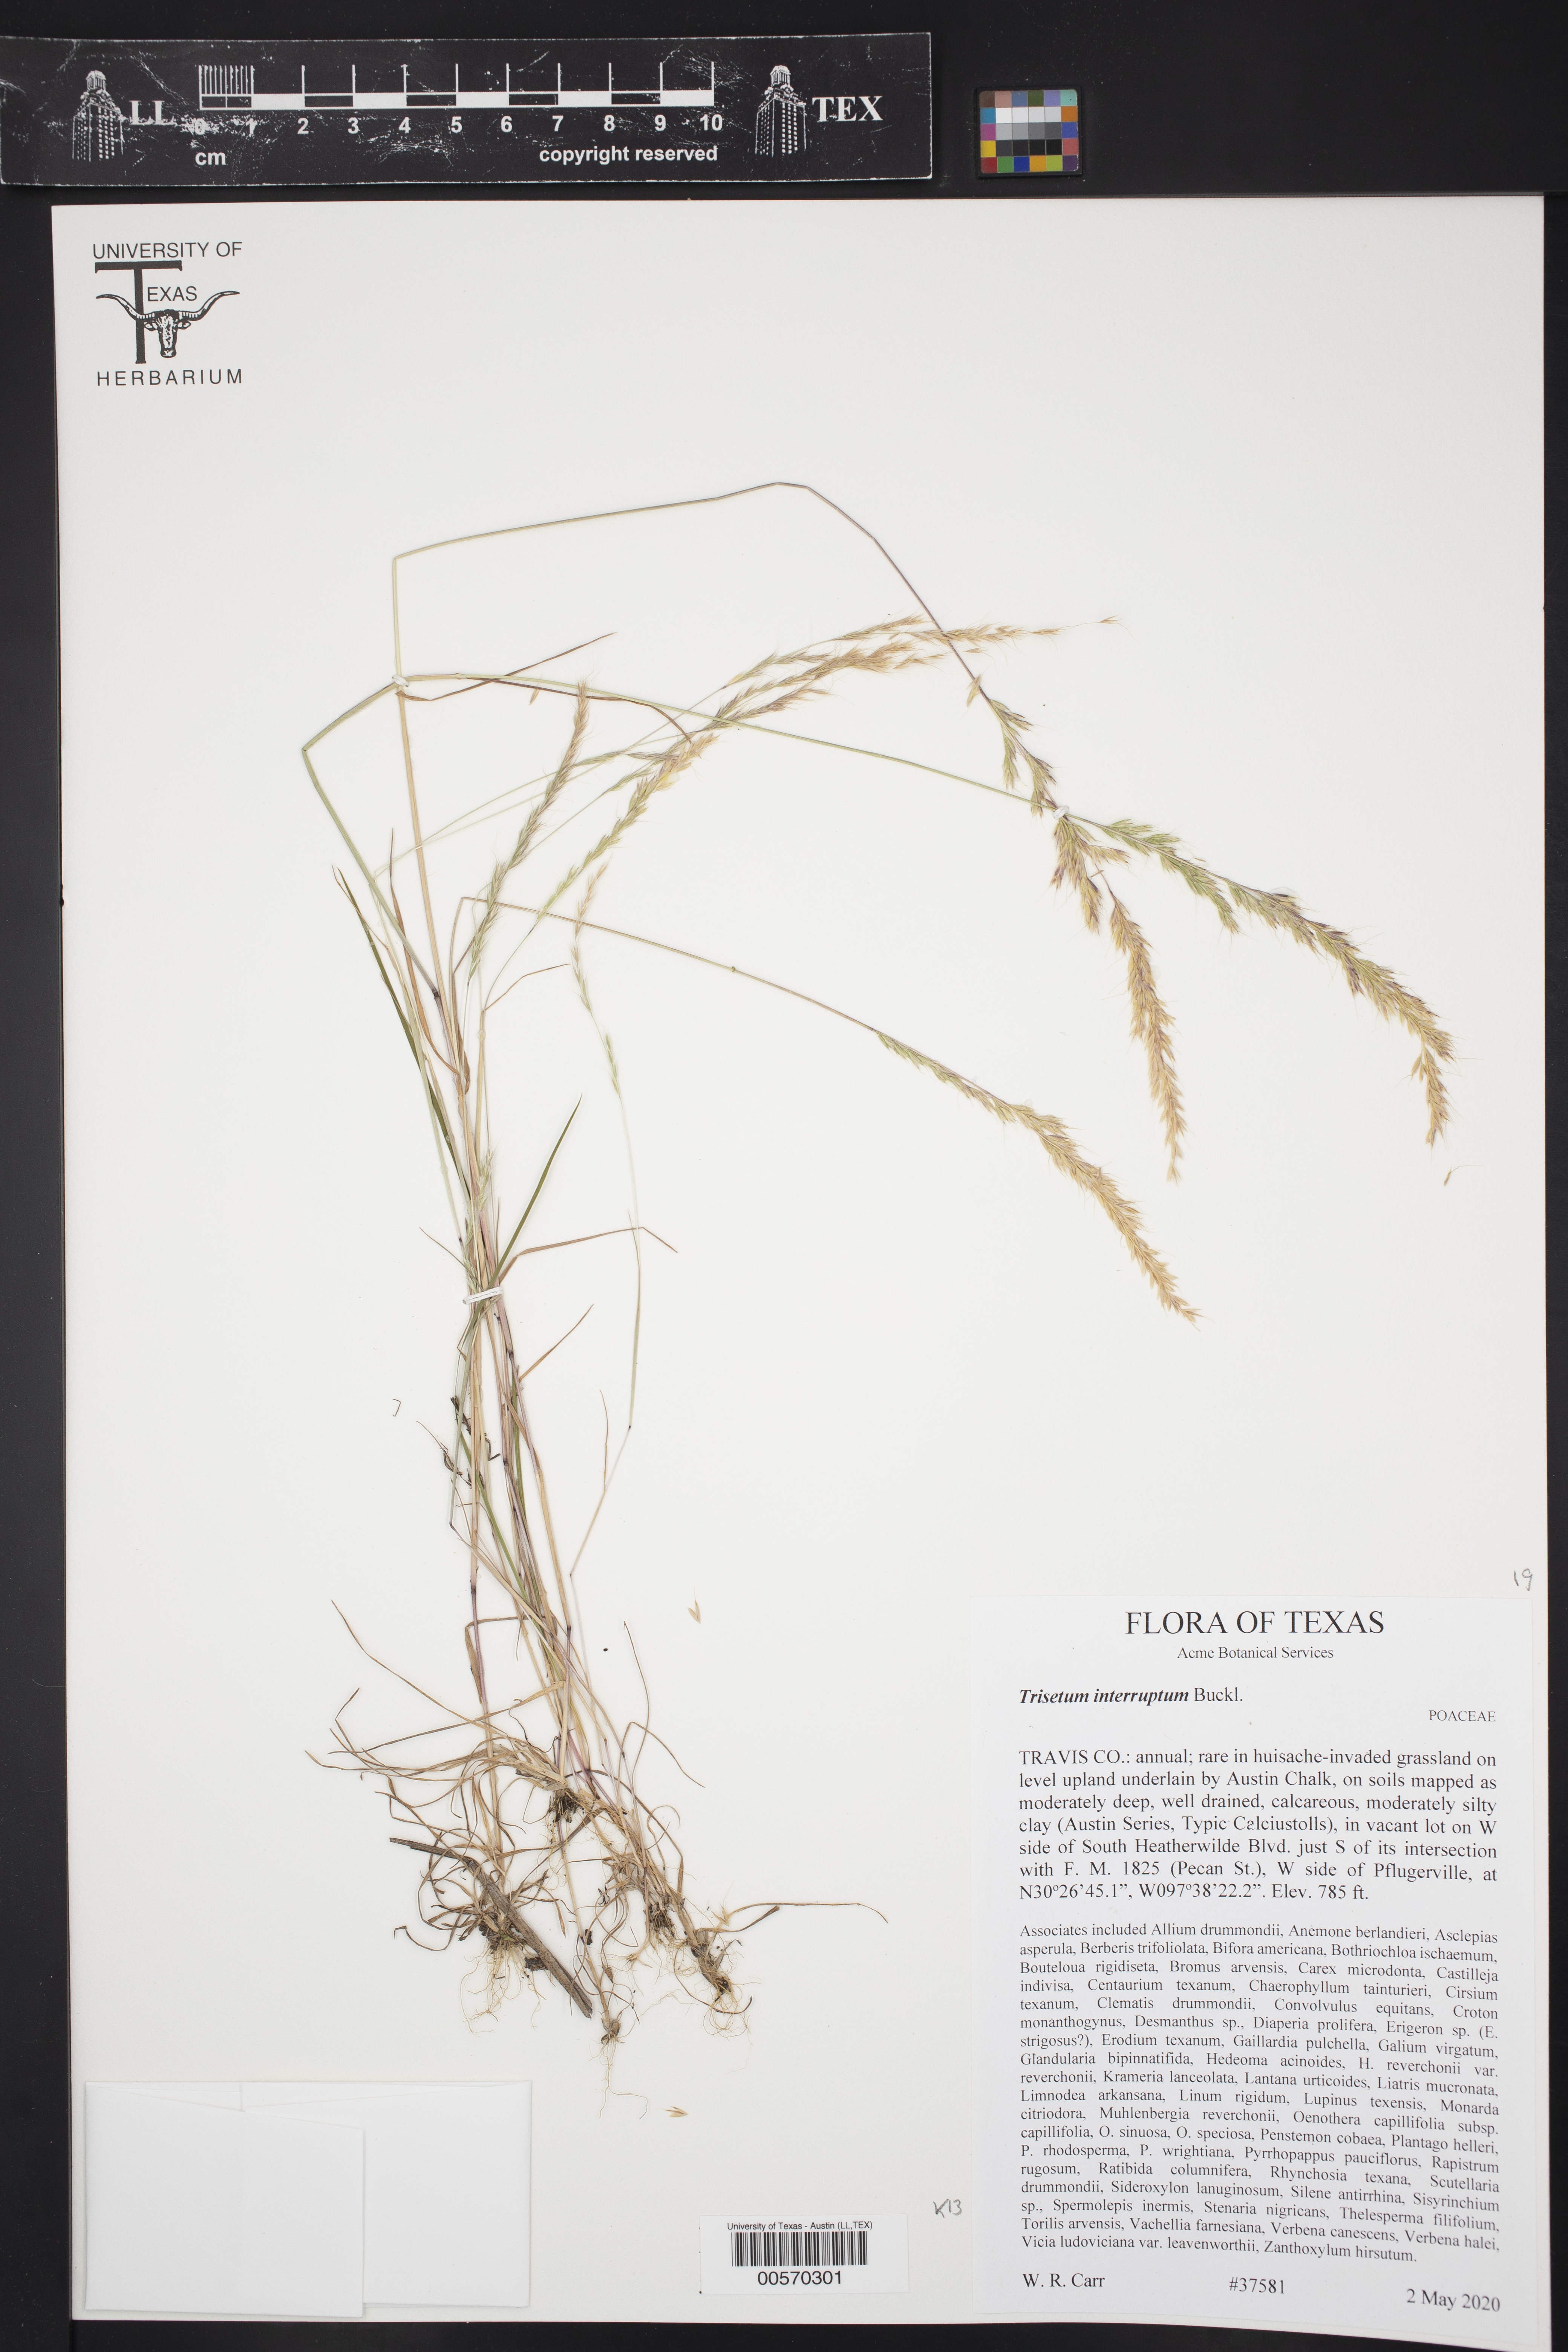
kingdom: Plantae
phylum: Tracheophyta
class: Liliopsida
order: Poales
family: Poaceae
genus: Trisetum
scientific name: Trisetum interruptum
